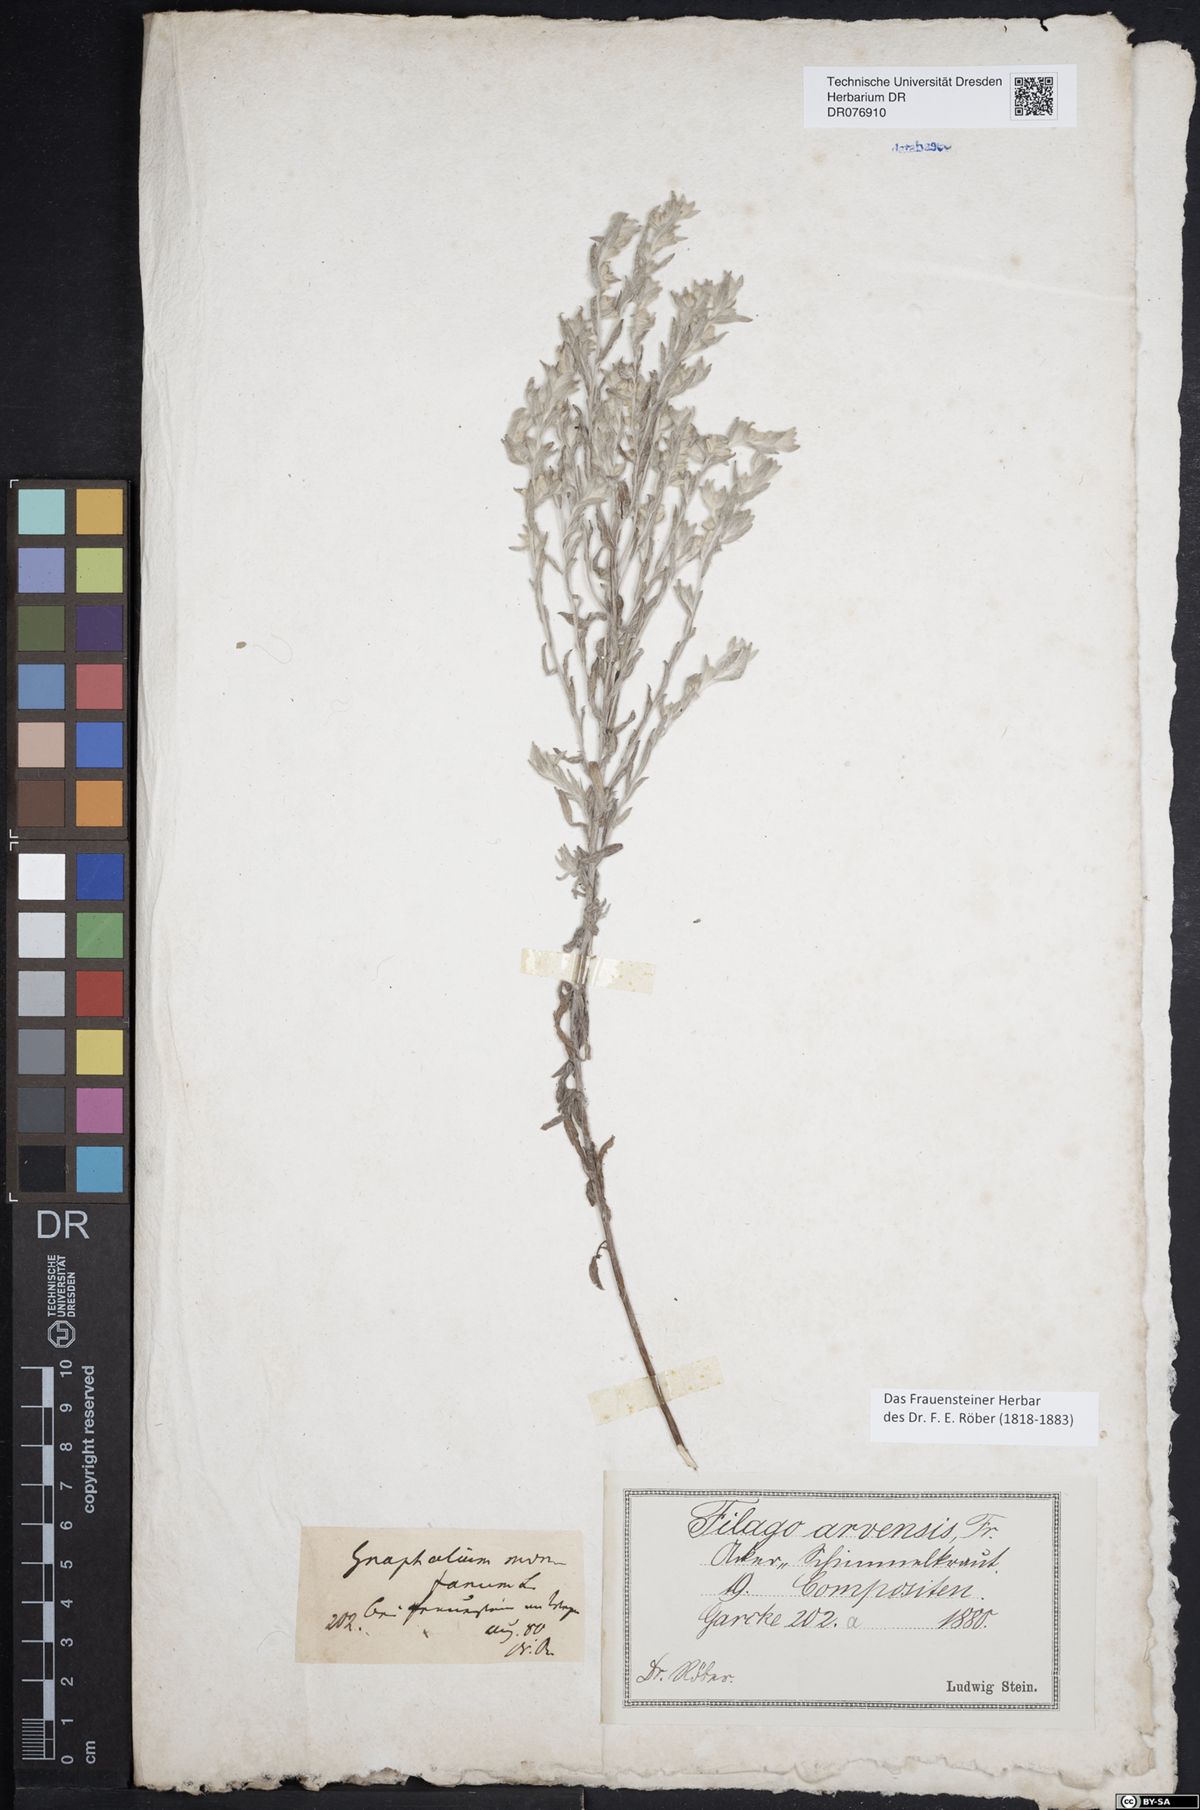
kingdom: Plantae
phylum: Tracheophyta
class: Magnoliopsida
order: Asterales
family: Asteraceae
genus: Filago
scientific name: Filago arvensis
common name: Field cudweed
